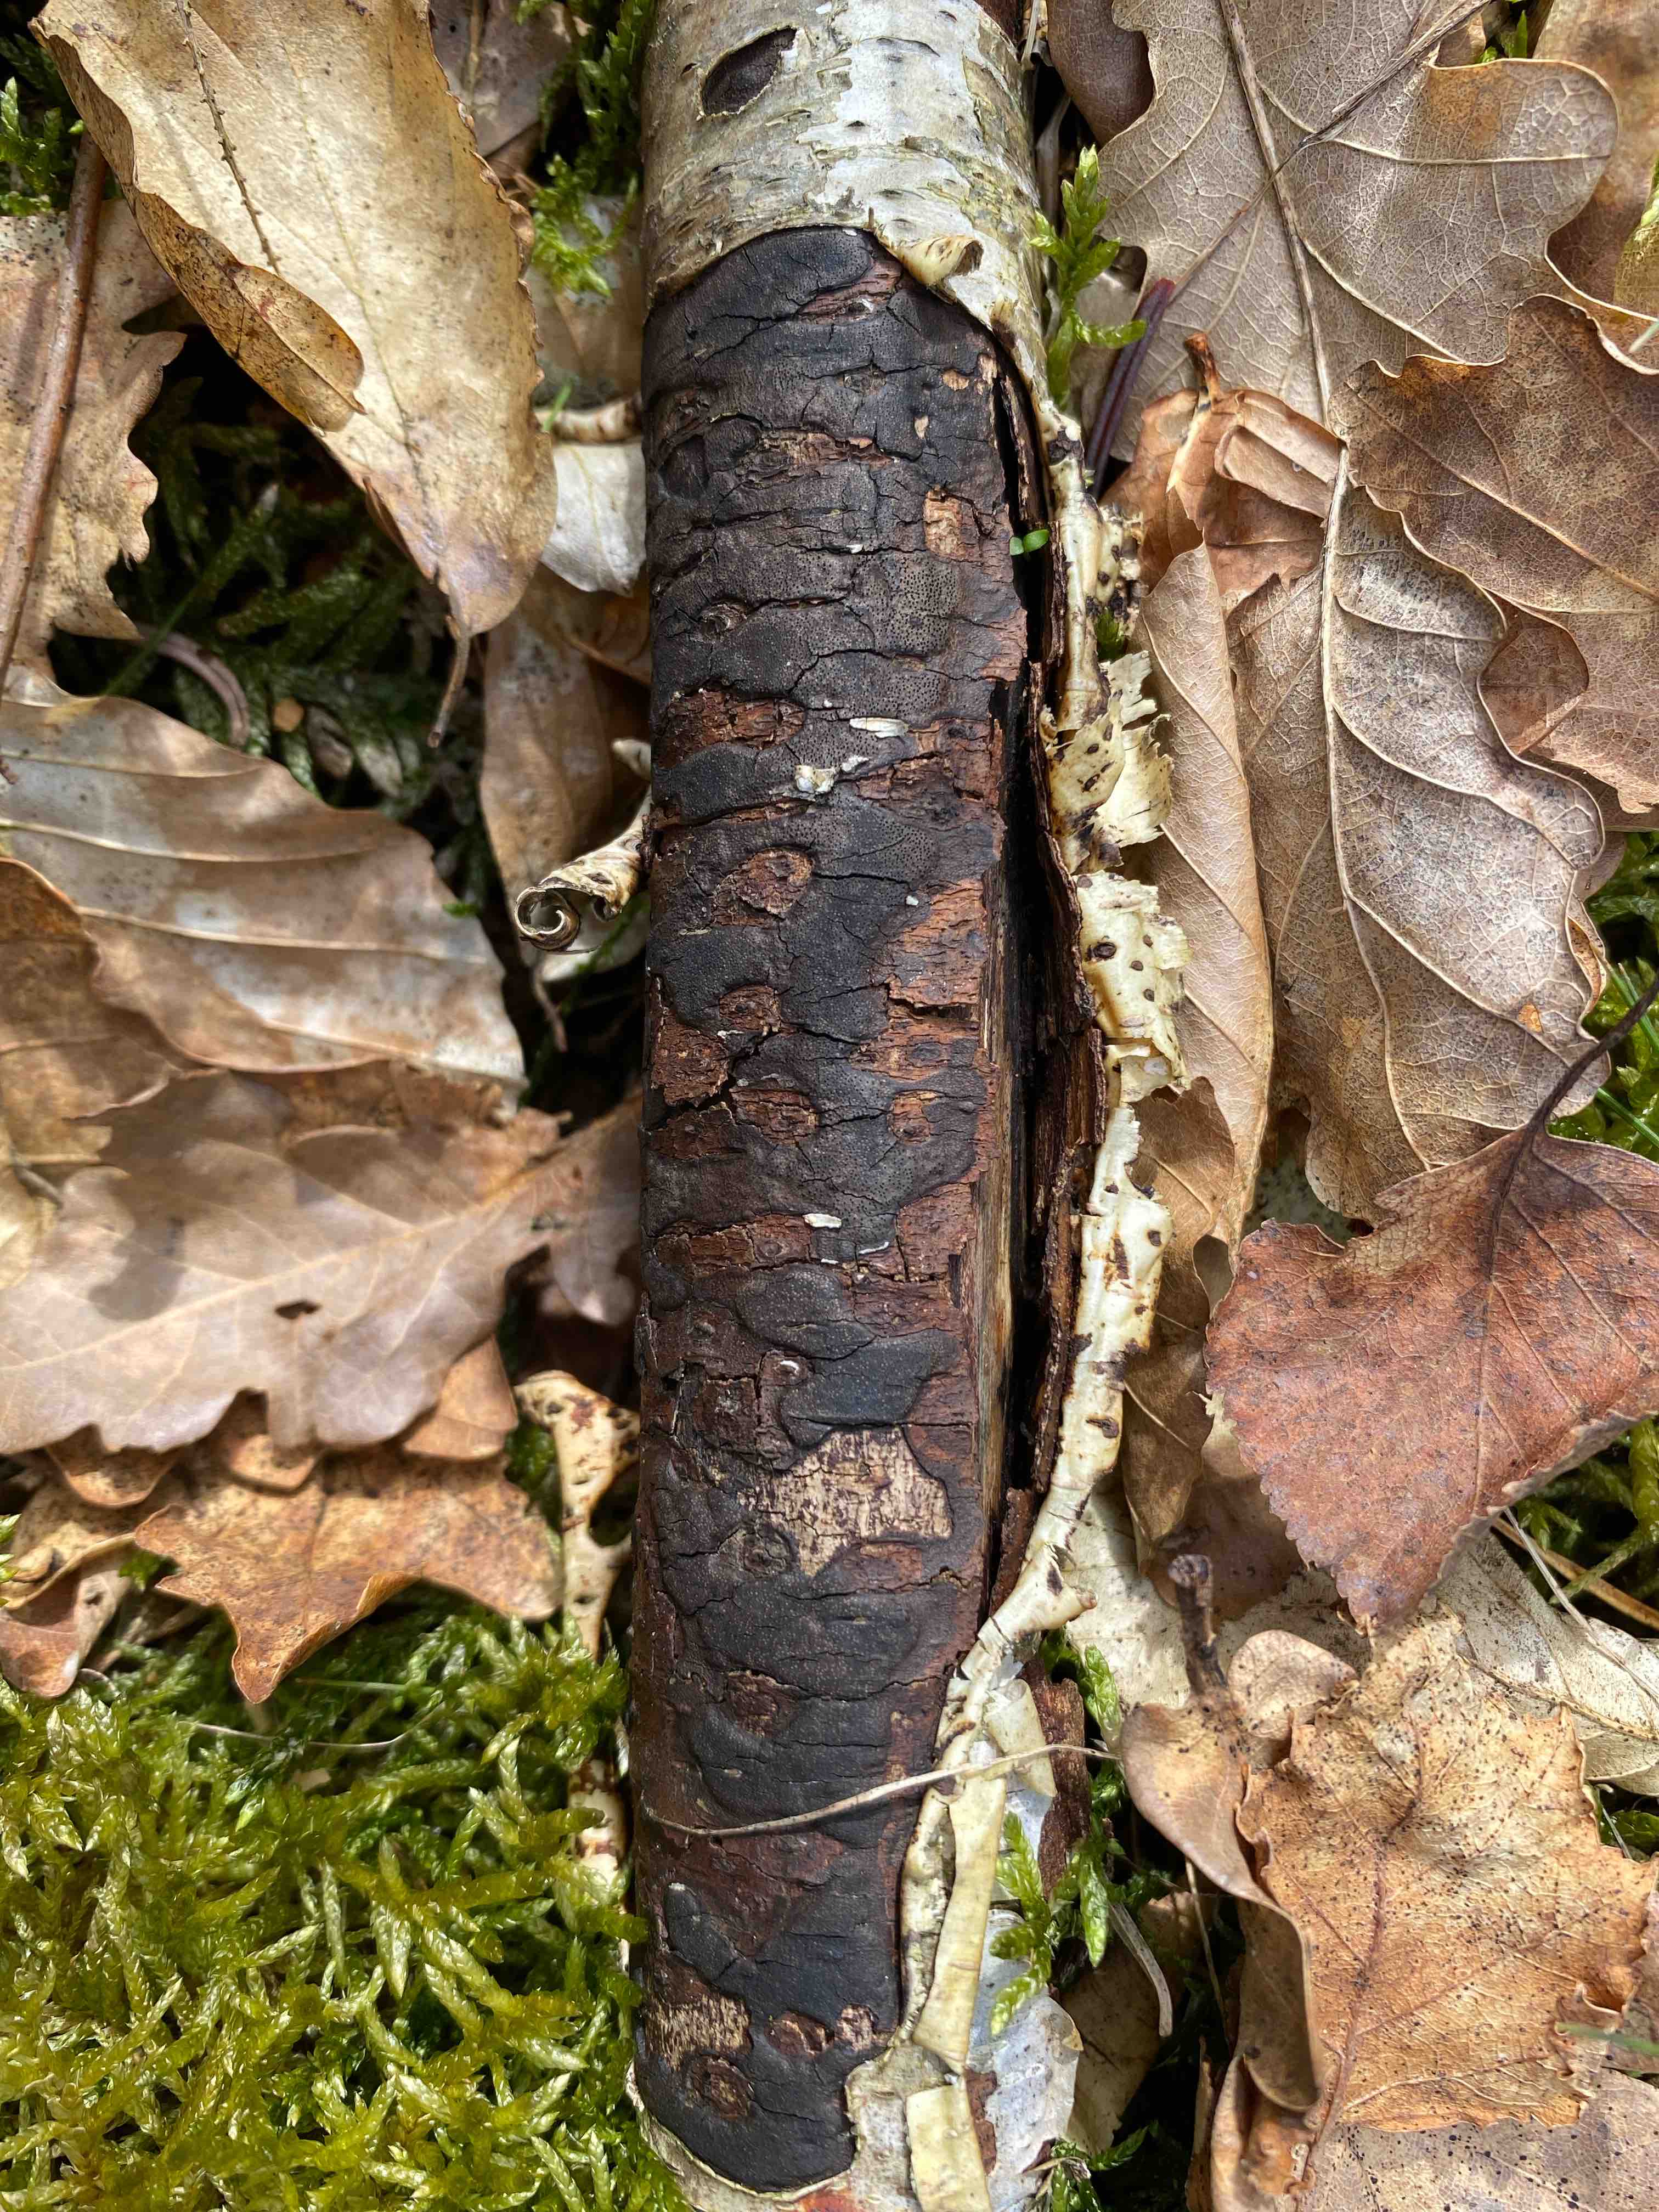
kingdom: Fungi
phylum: Ascomycota
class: Sordariomycetes
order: Xylariales
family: Diatrypaceae
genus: Diatrype
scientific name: Diatrype
